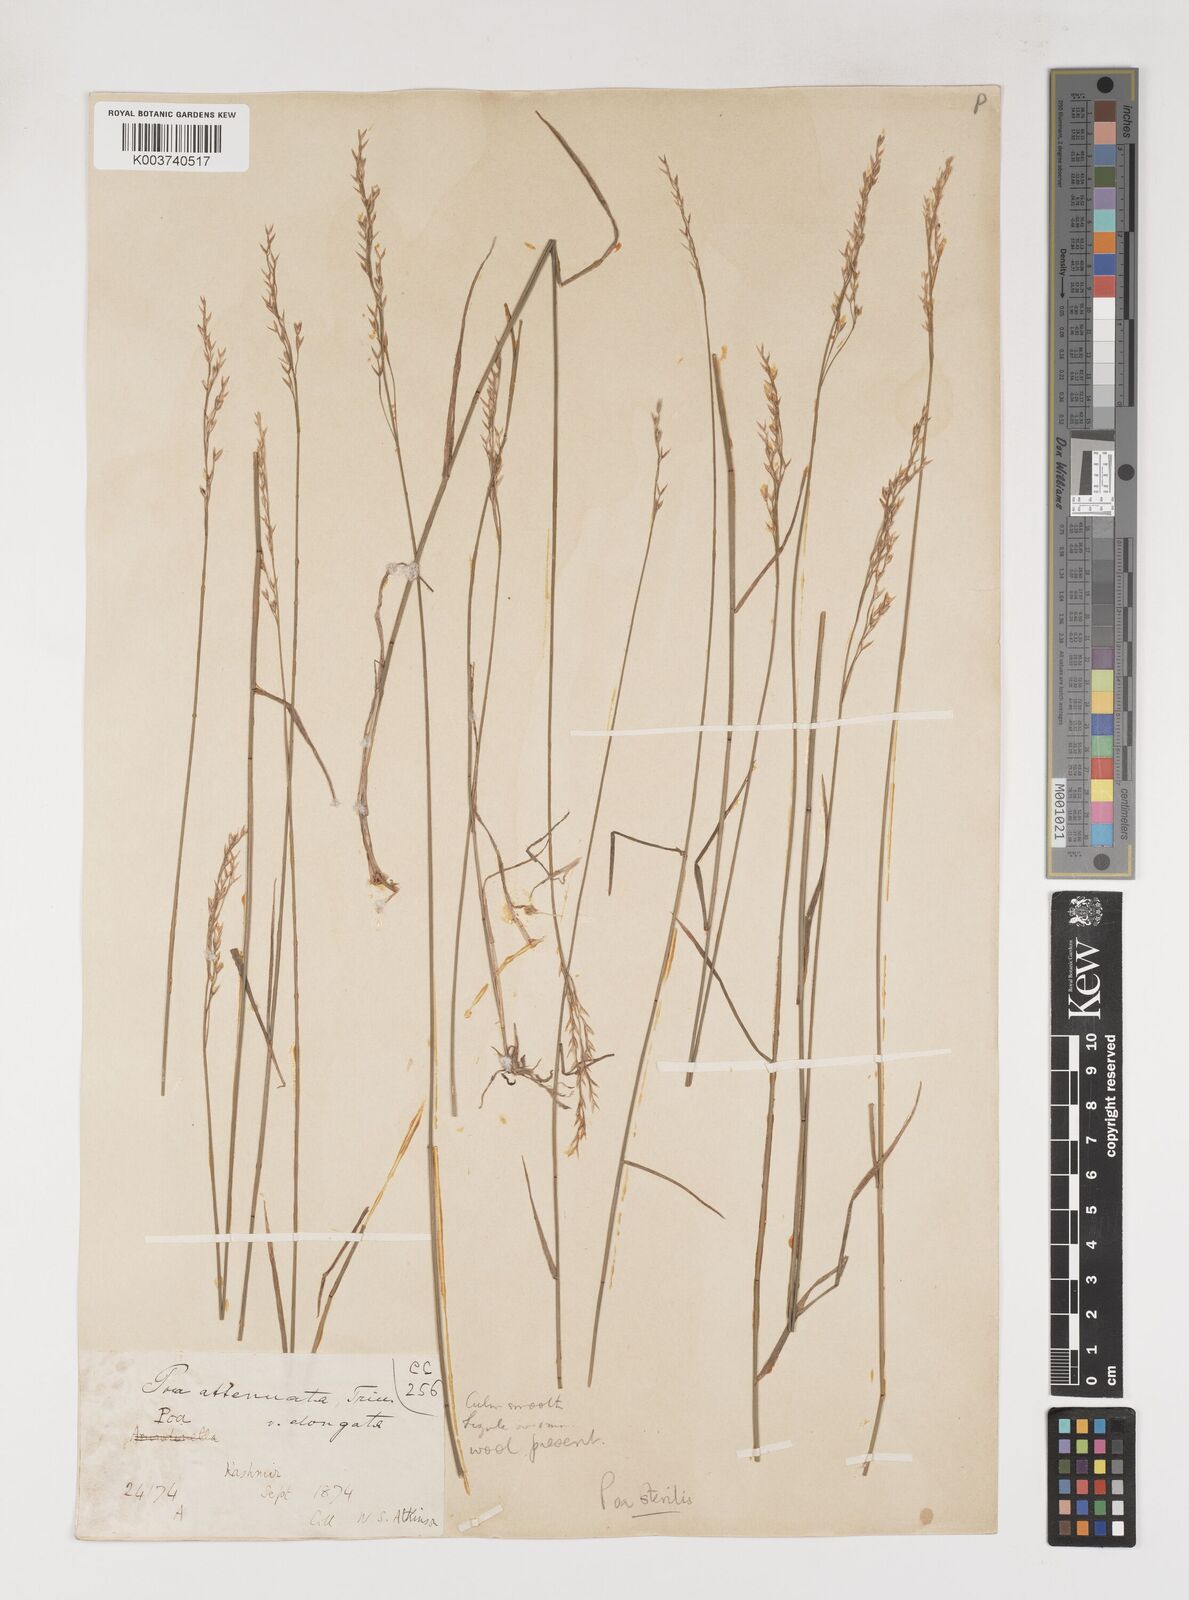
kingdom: Plantae
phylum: Tracheophyta
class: Liliopsida
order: Poales
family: Poaceae
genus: Poa
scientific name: Poa sterilis
